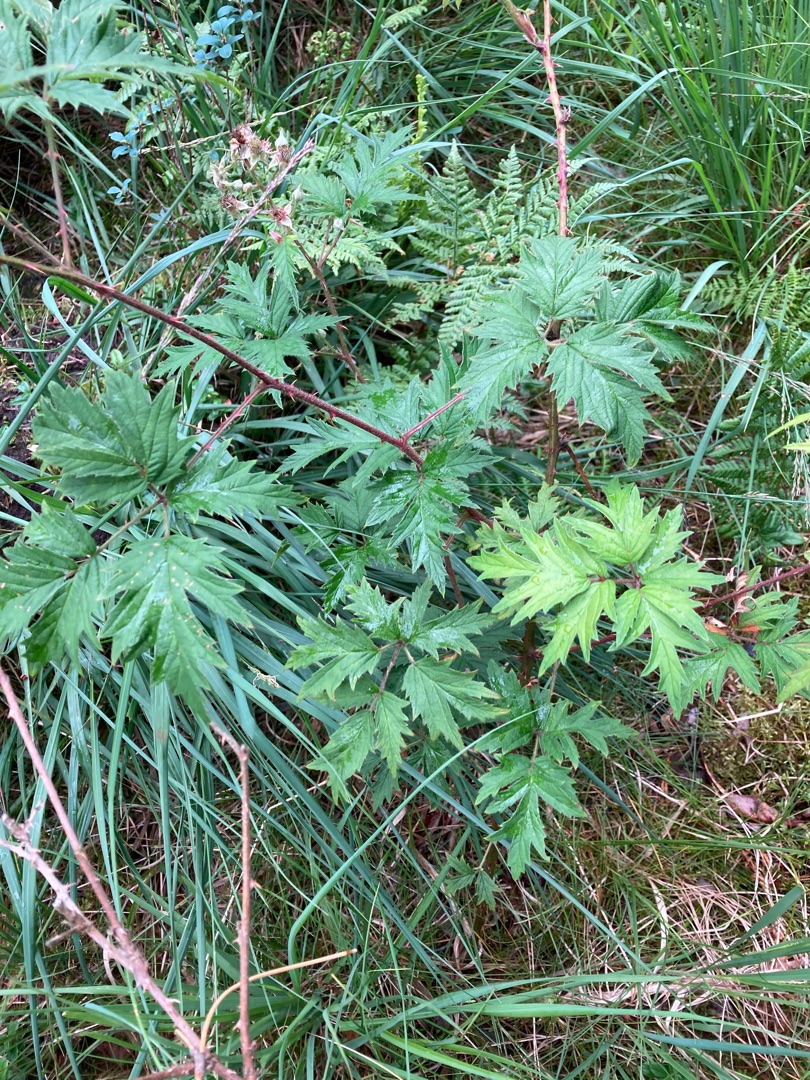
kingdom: Plantae
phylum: Tracheophyta
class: Magnoliopsida
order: Rosales
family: Rosaceae
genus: Rubus
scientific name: Rubus laciniatus
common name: Fliget brombær
